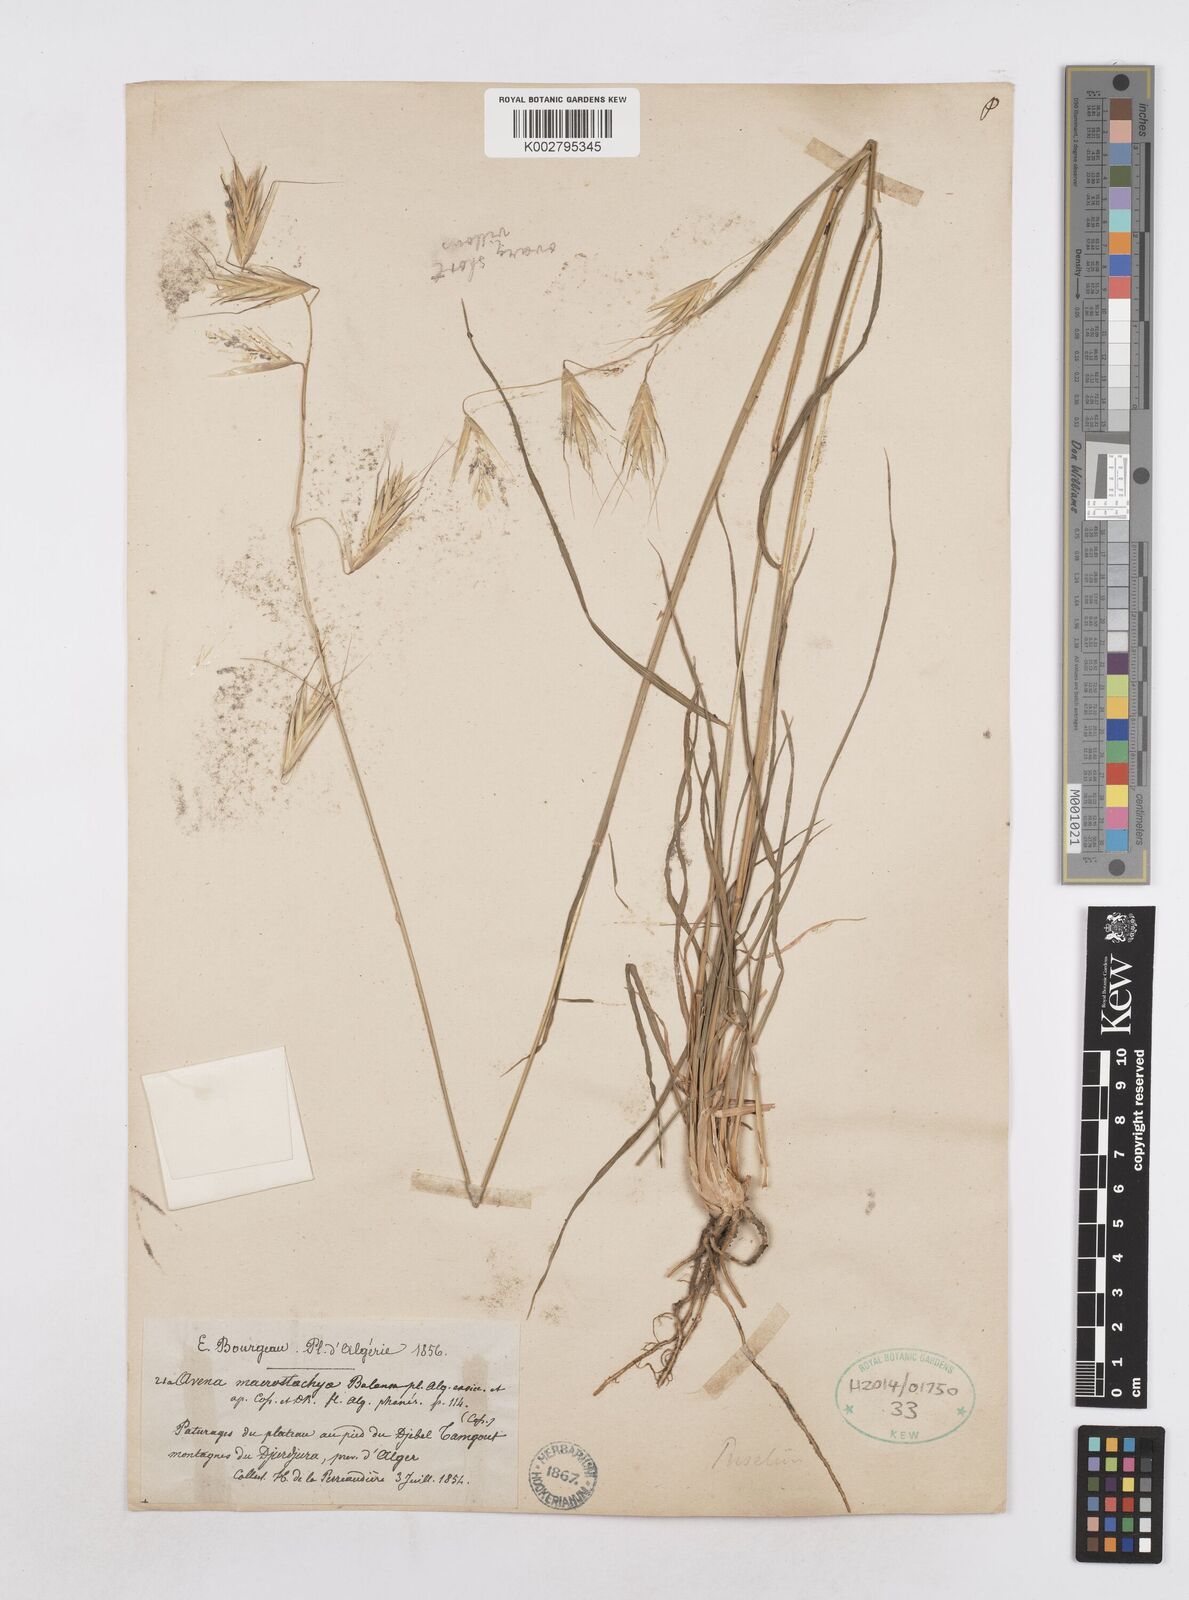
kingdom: Plantae
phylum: Tracheophyta
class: Liliopsida
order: Poales
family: Poaceae
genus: Helictotrichon
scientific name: Helictotrichon macrostachyum
